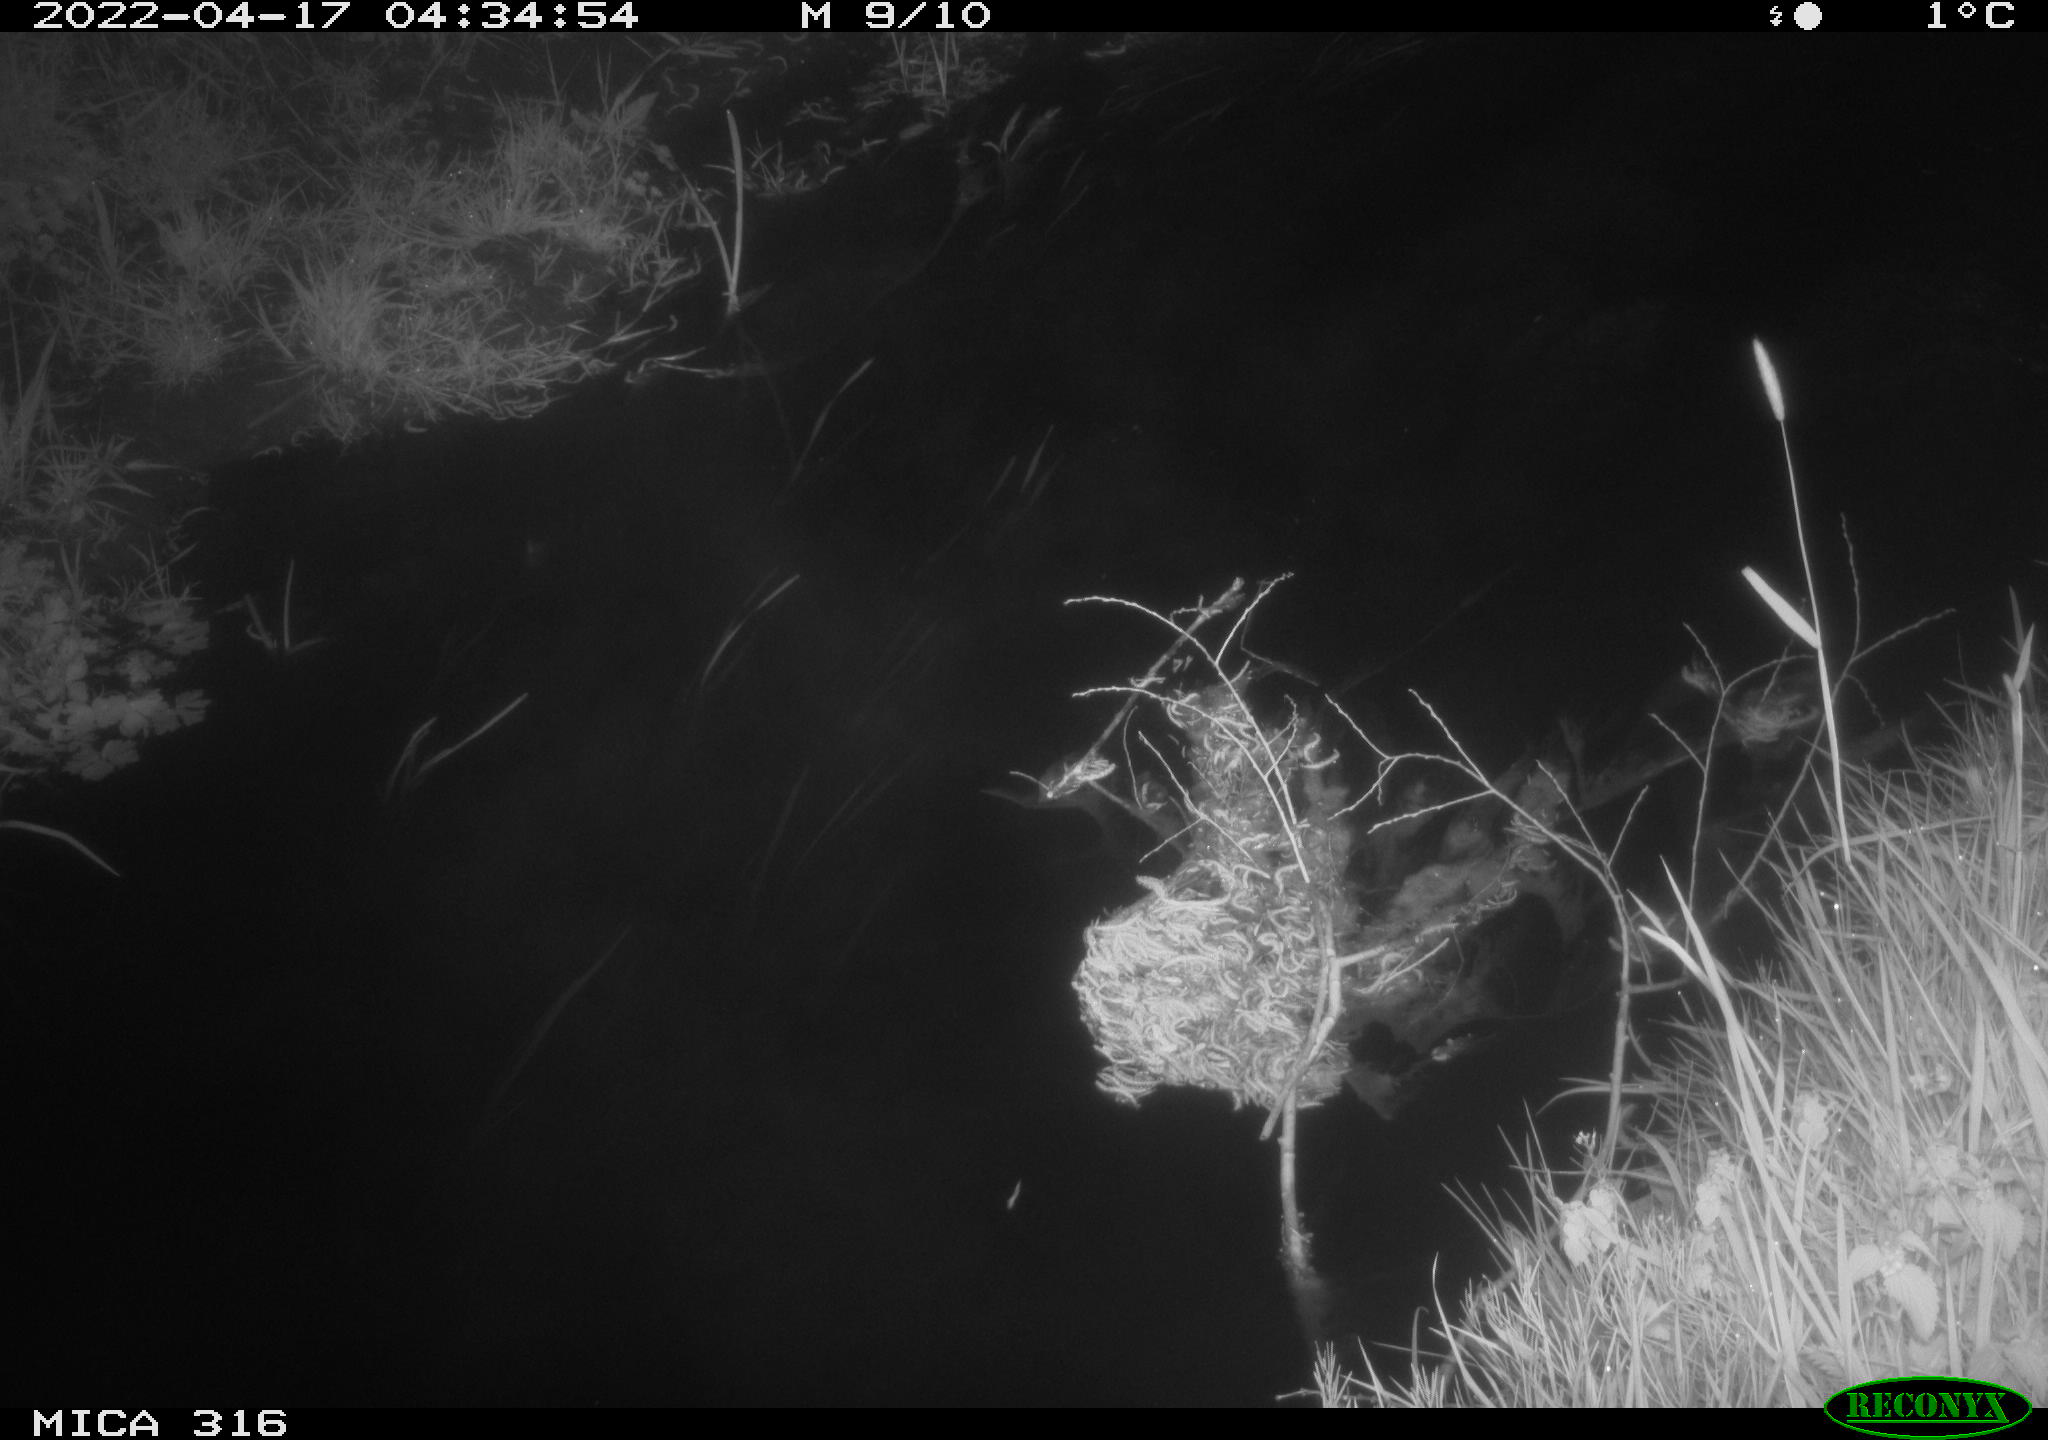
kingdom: Animalia
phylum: Chordata
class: Aves
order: Anseriformes
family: Anatidae
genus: Anas
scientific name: Anas platyrhynchos
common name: Mallard
